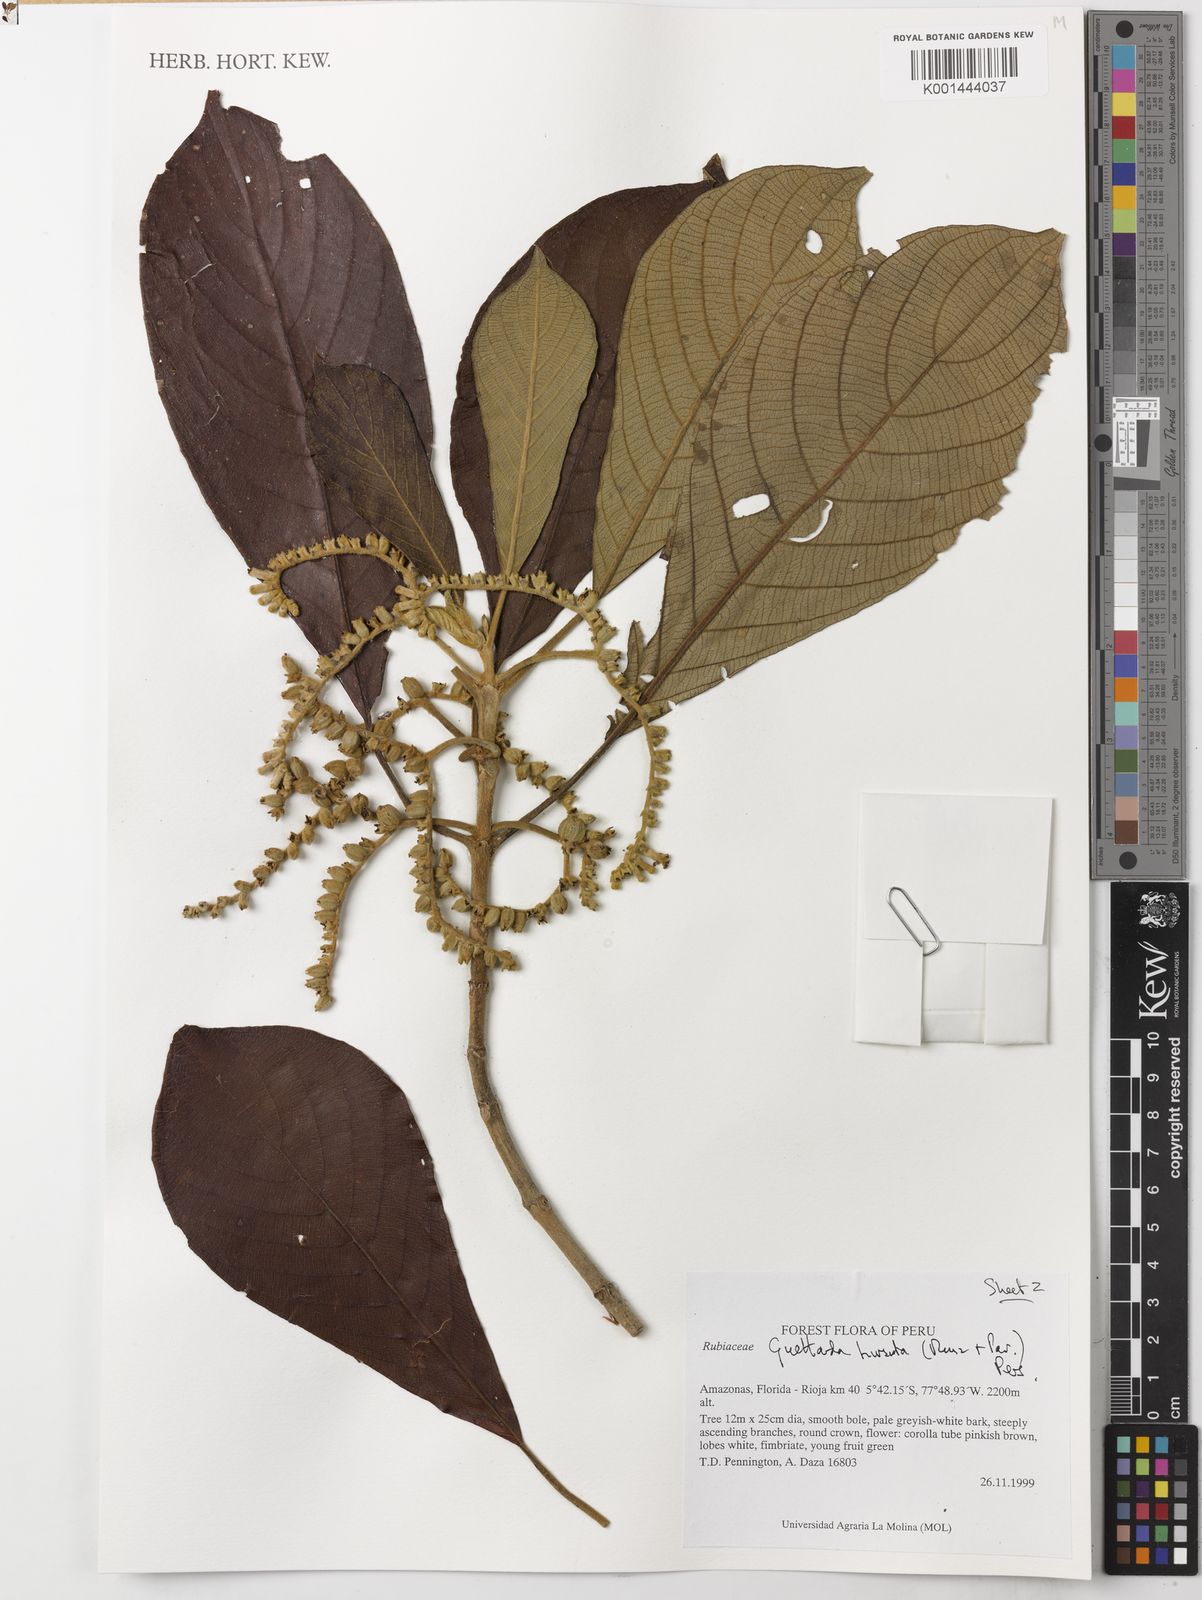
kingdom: Plantae
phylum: Tracheophyta
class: Magnoliopsida
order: Gentianales
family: Rubiaceae
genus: Tournefortiopsis
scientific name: Tournefortiopsis hirsuta
